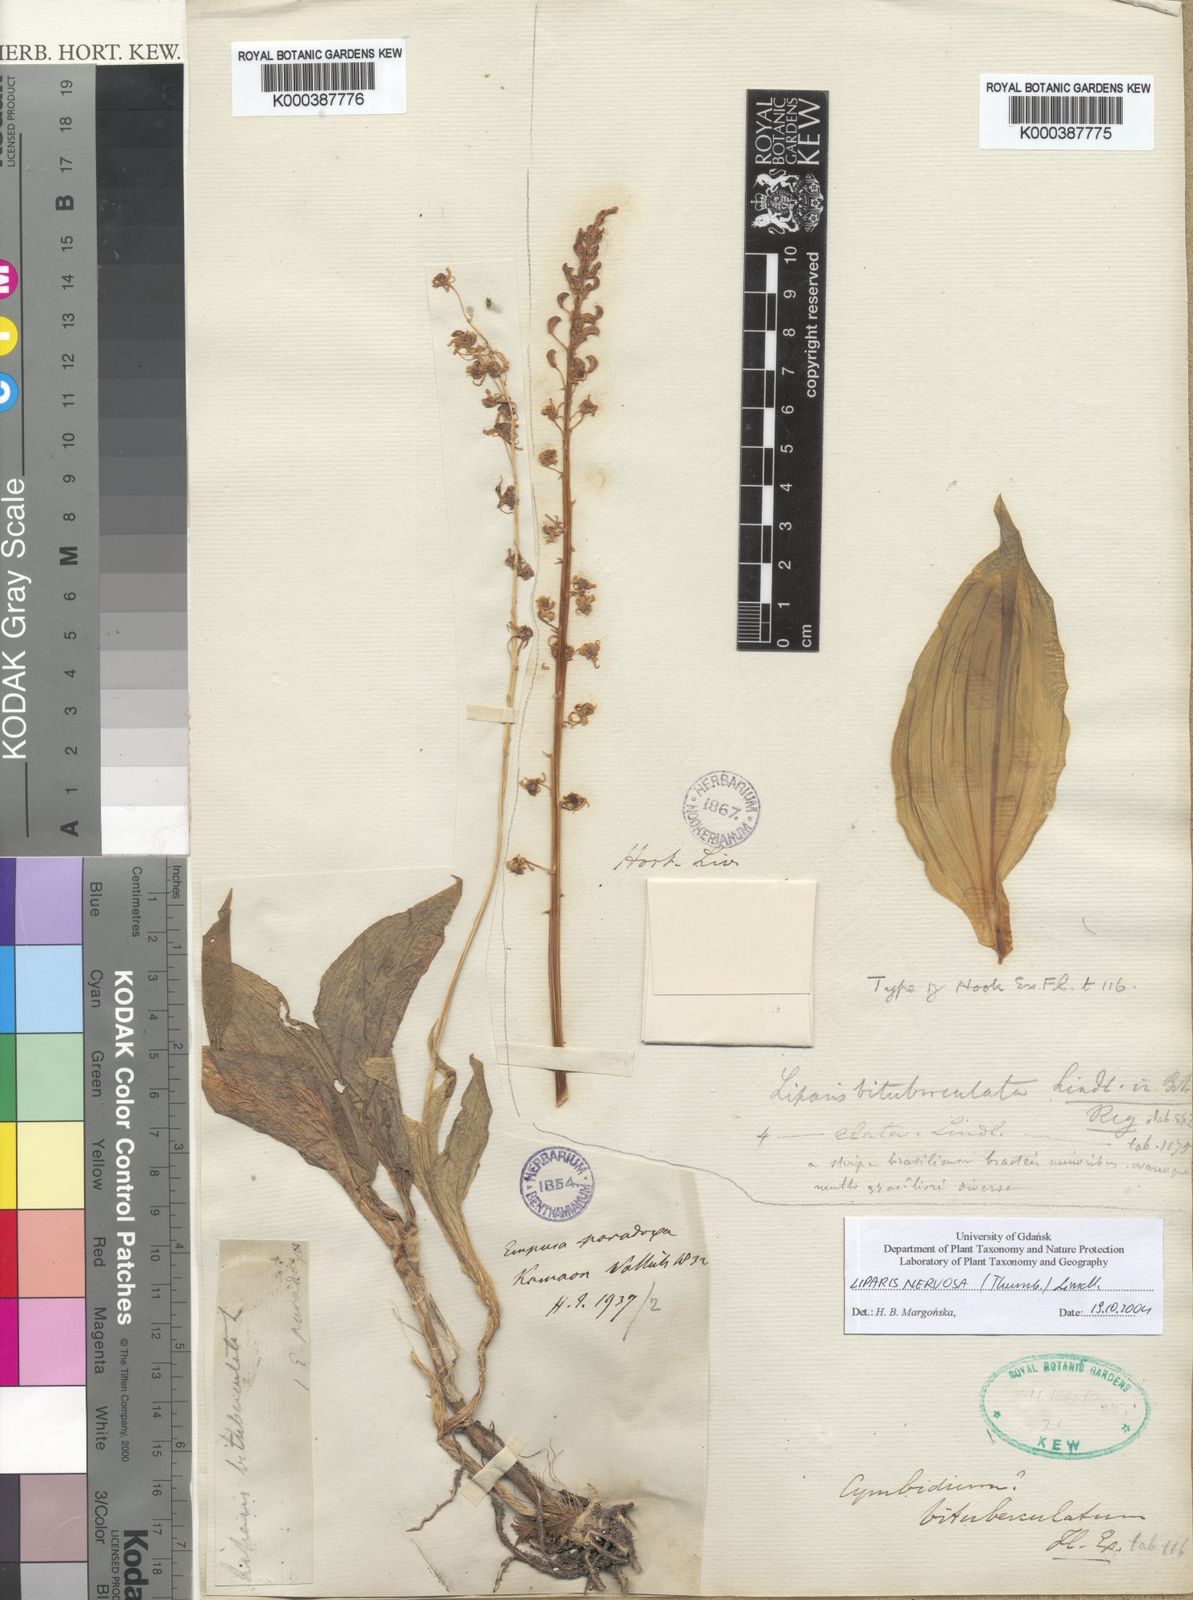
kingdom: Plantae
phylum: Tracheophyta
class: Liliopsida
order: Asparagales
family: Orchidaceae
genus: Liparis
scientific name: Liparis nervosa
